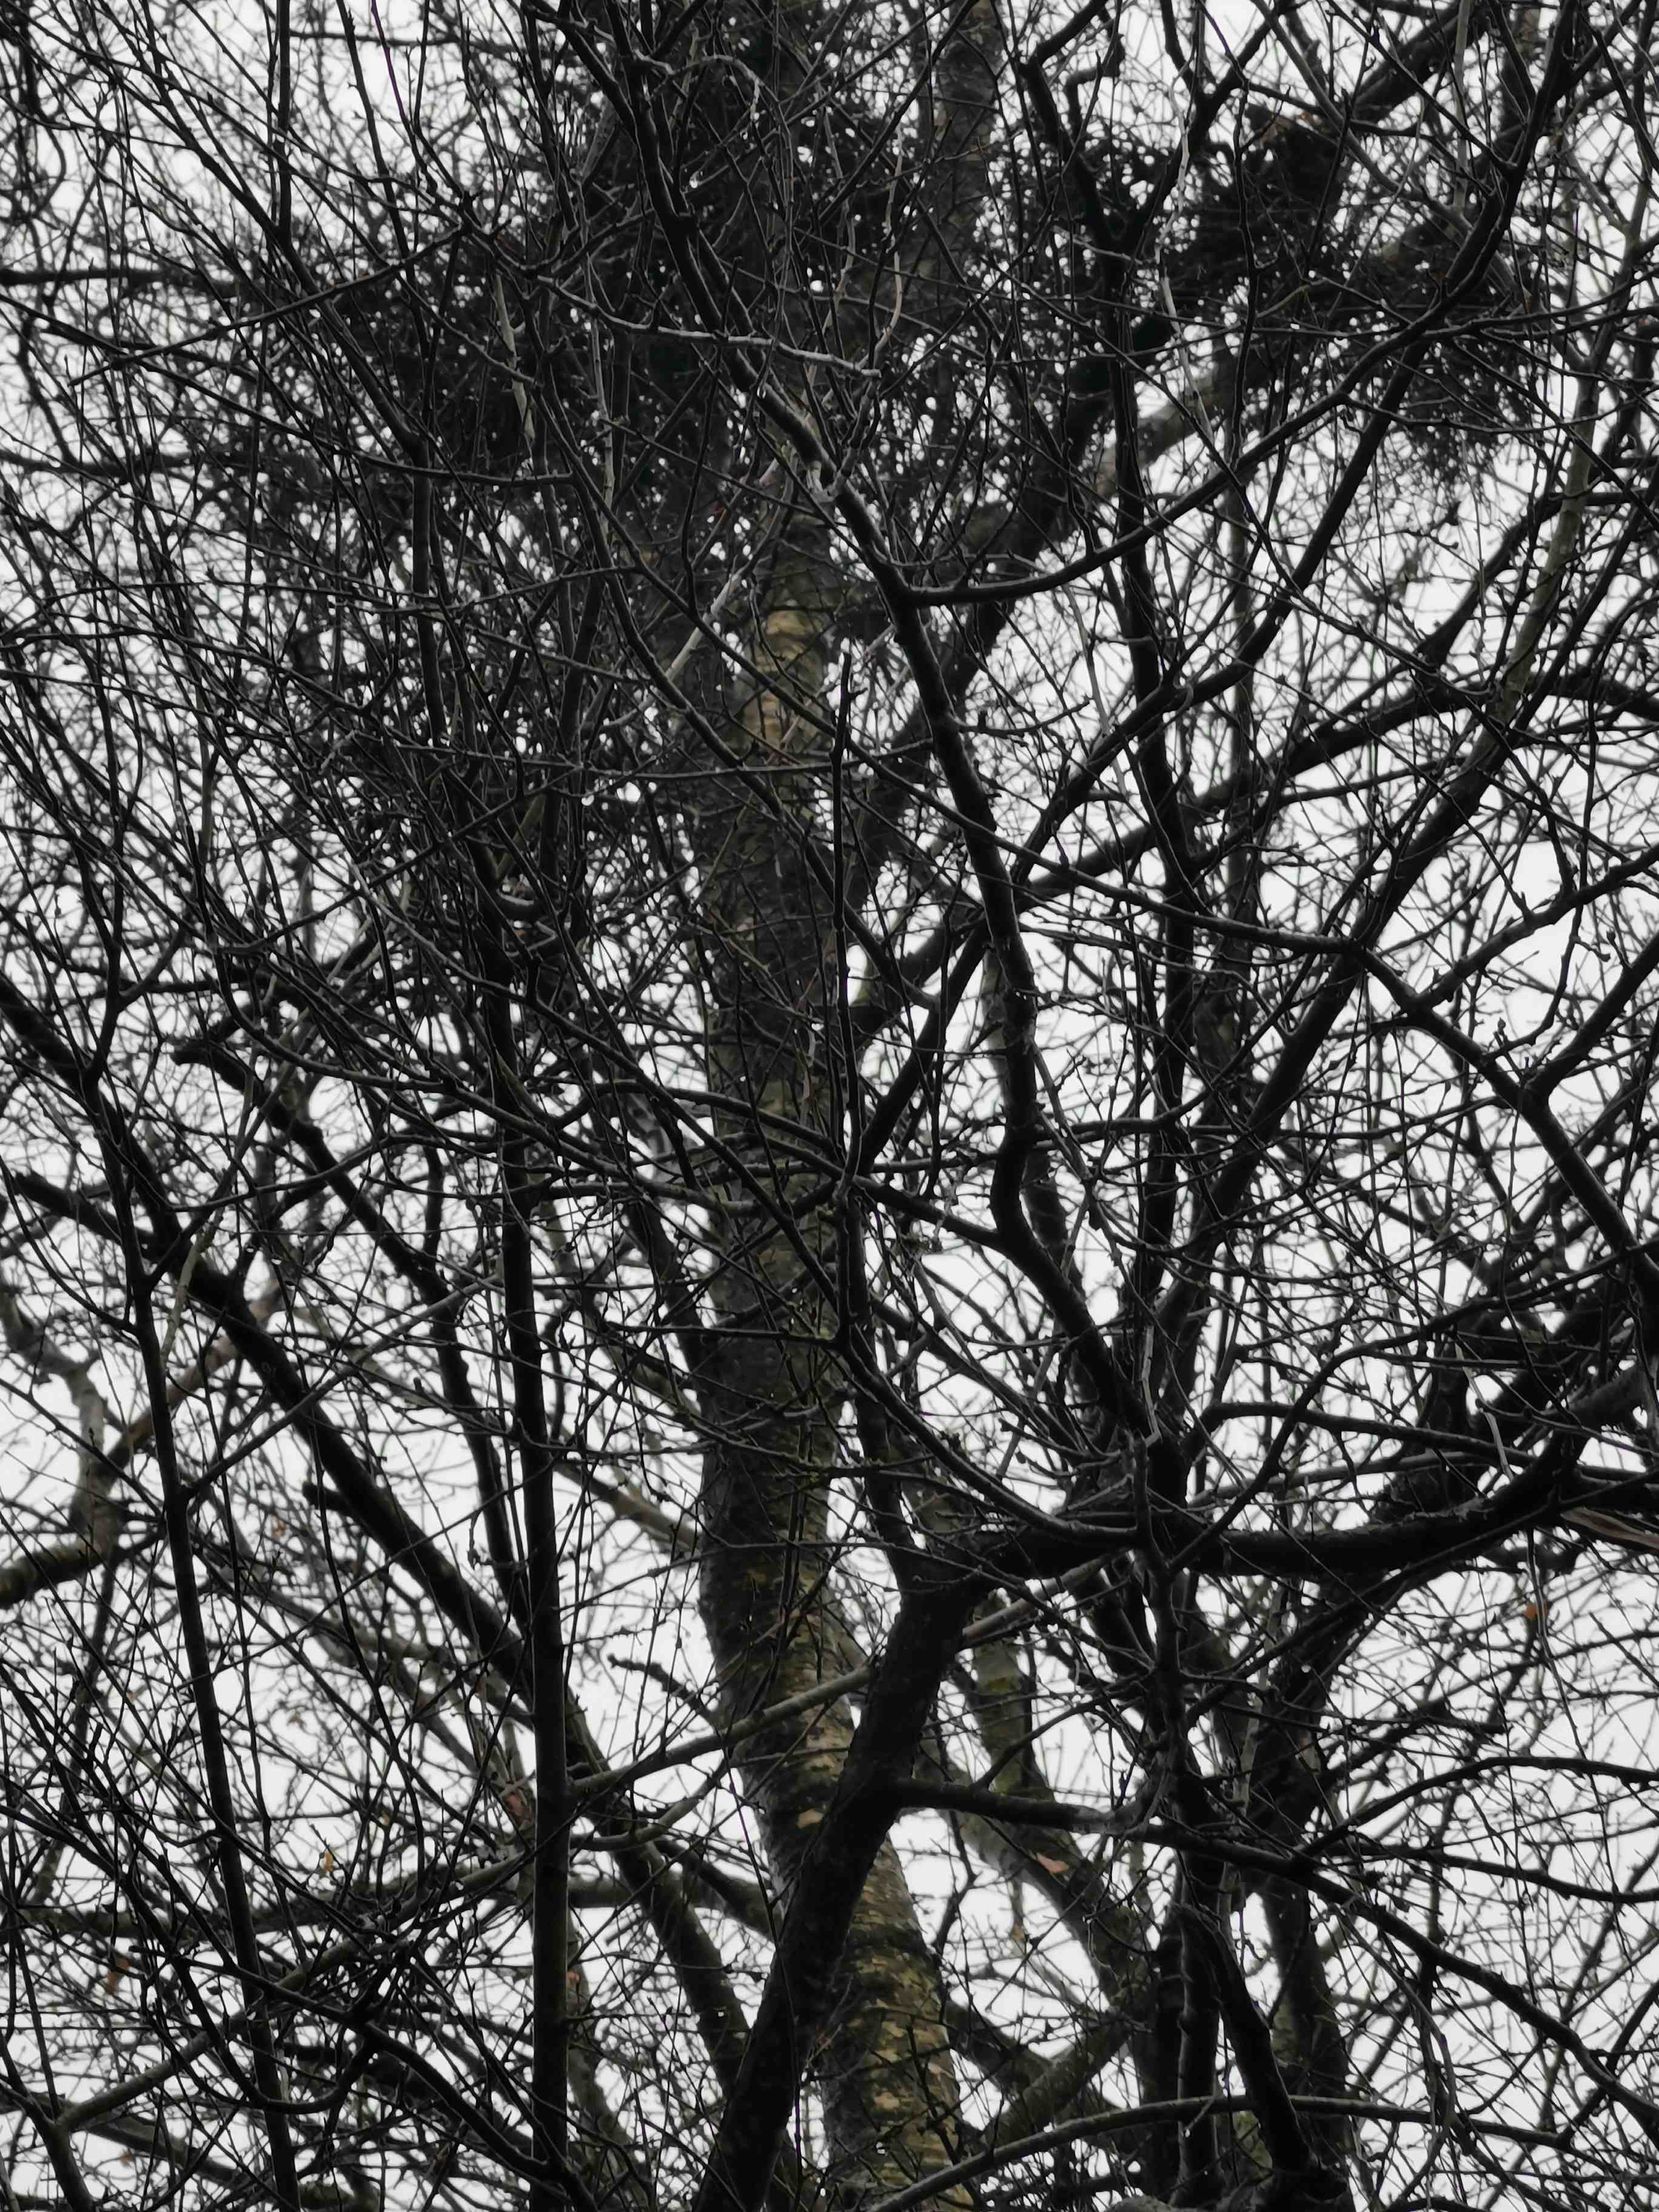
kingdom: Fungi
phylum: Ascomycota
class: Taphrinomycetes
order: Taphrinales
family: Taphrinaceae
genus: Taphrina
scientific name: Taphrina betulina
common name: hekse-sækdug
